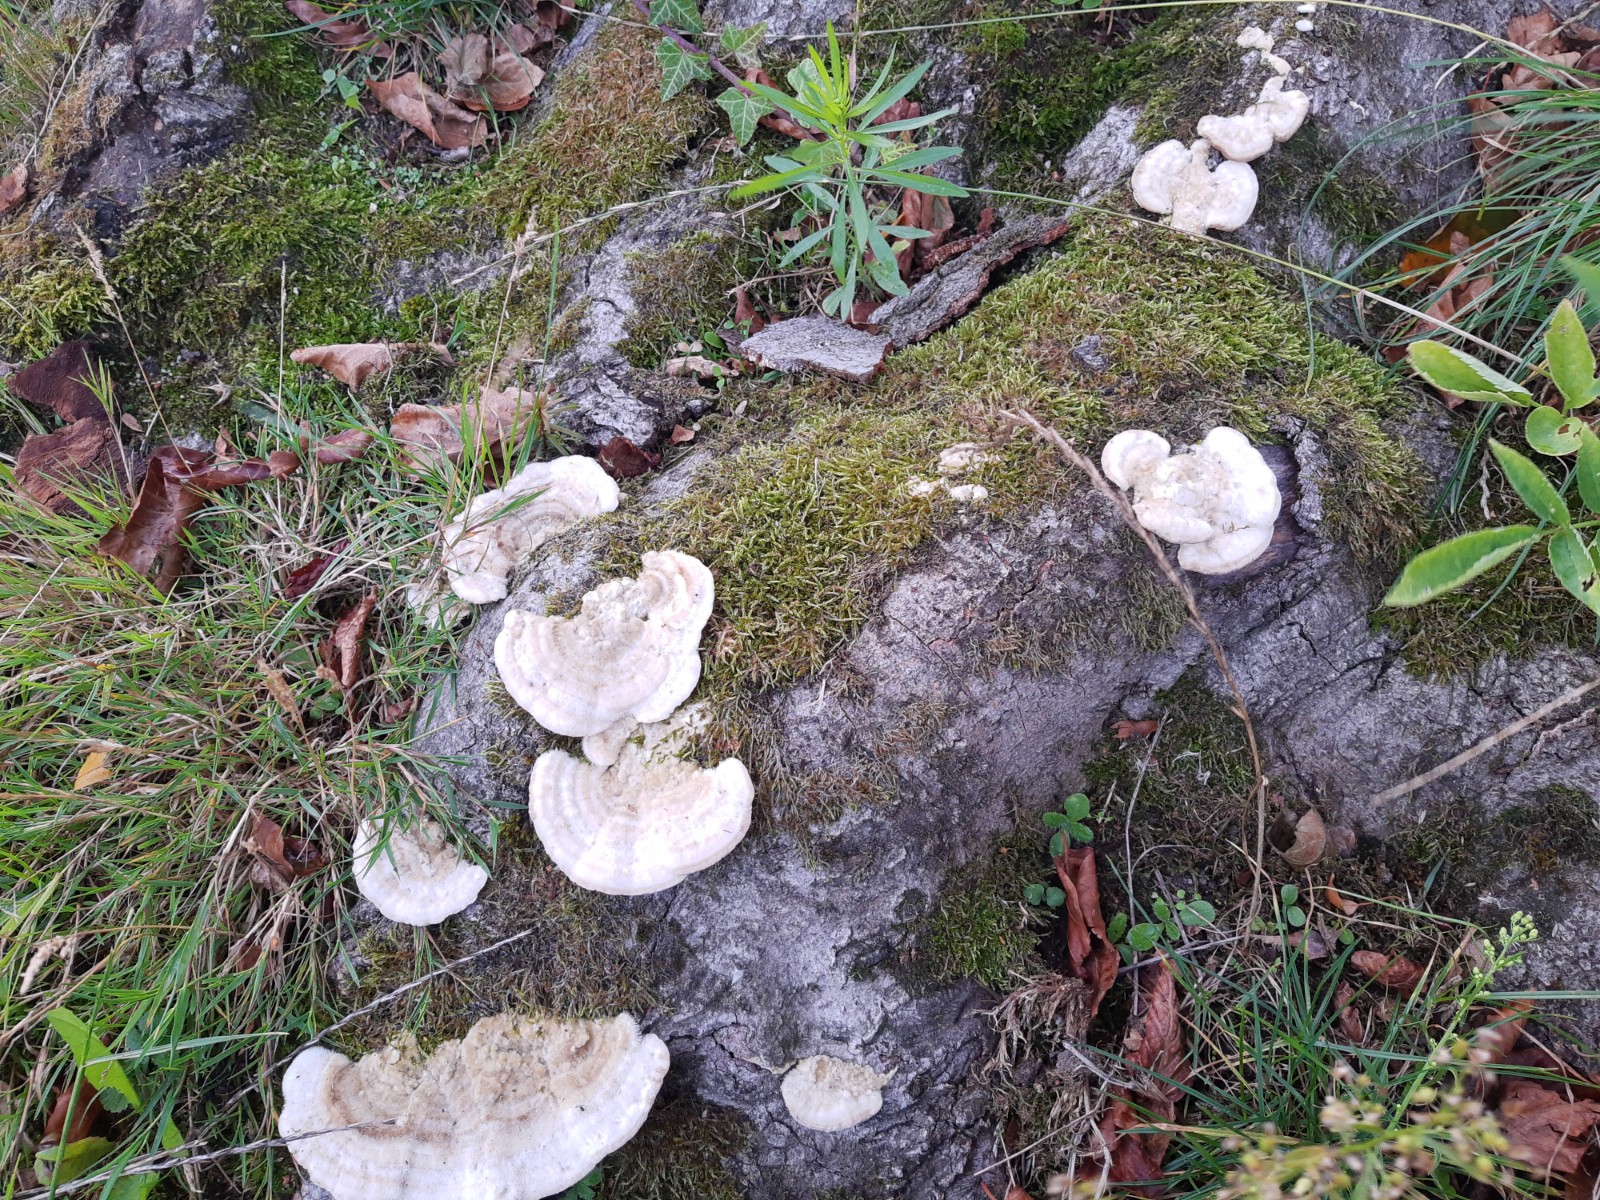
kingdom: Fungi
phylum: Basidiomycota
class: Agaricomycetes
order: Polyporales
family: Polyporaceae
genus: Trametes
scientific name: Trametes hirsuta
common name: håret læderporesvamp
